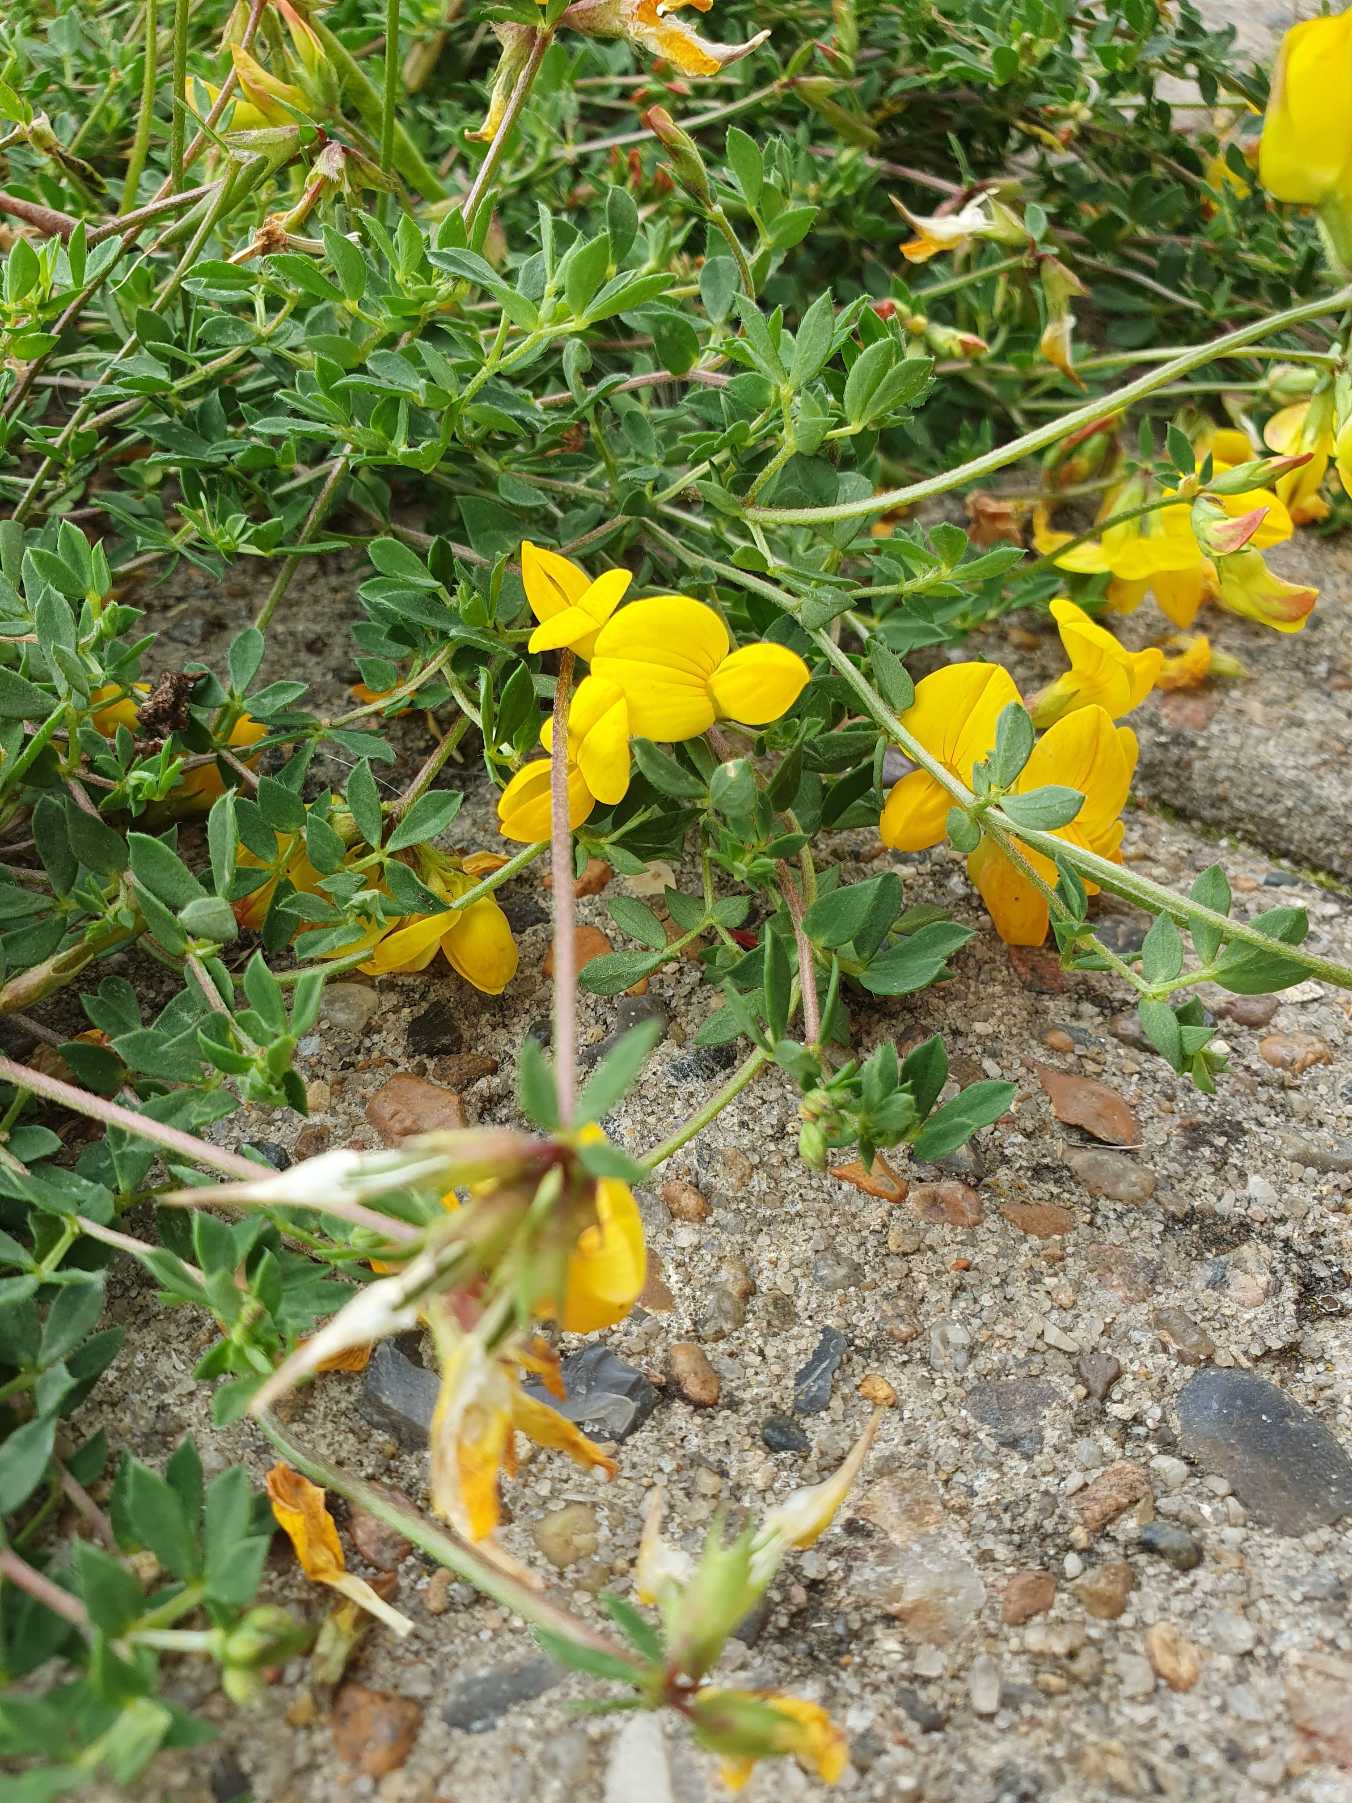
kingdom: Plantae
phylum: Tracheophyta
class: Magnoliopsida
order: Fabales
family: Fabaceae
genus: Lotus
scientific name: Lotus corniculatus
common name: Almindelig kællingetand
